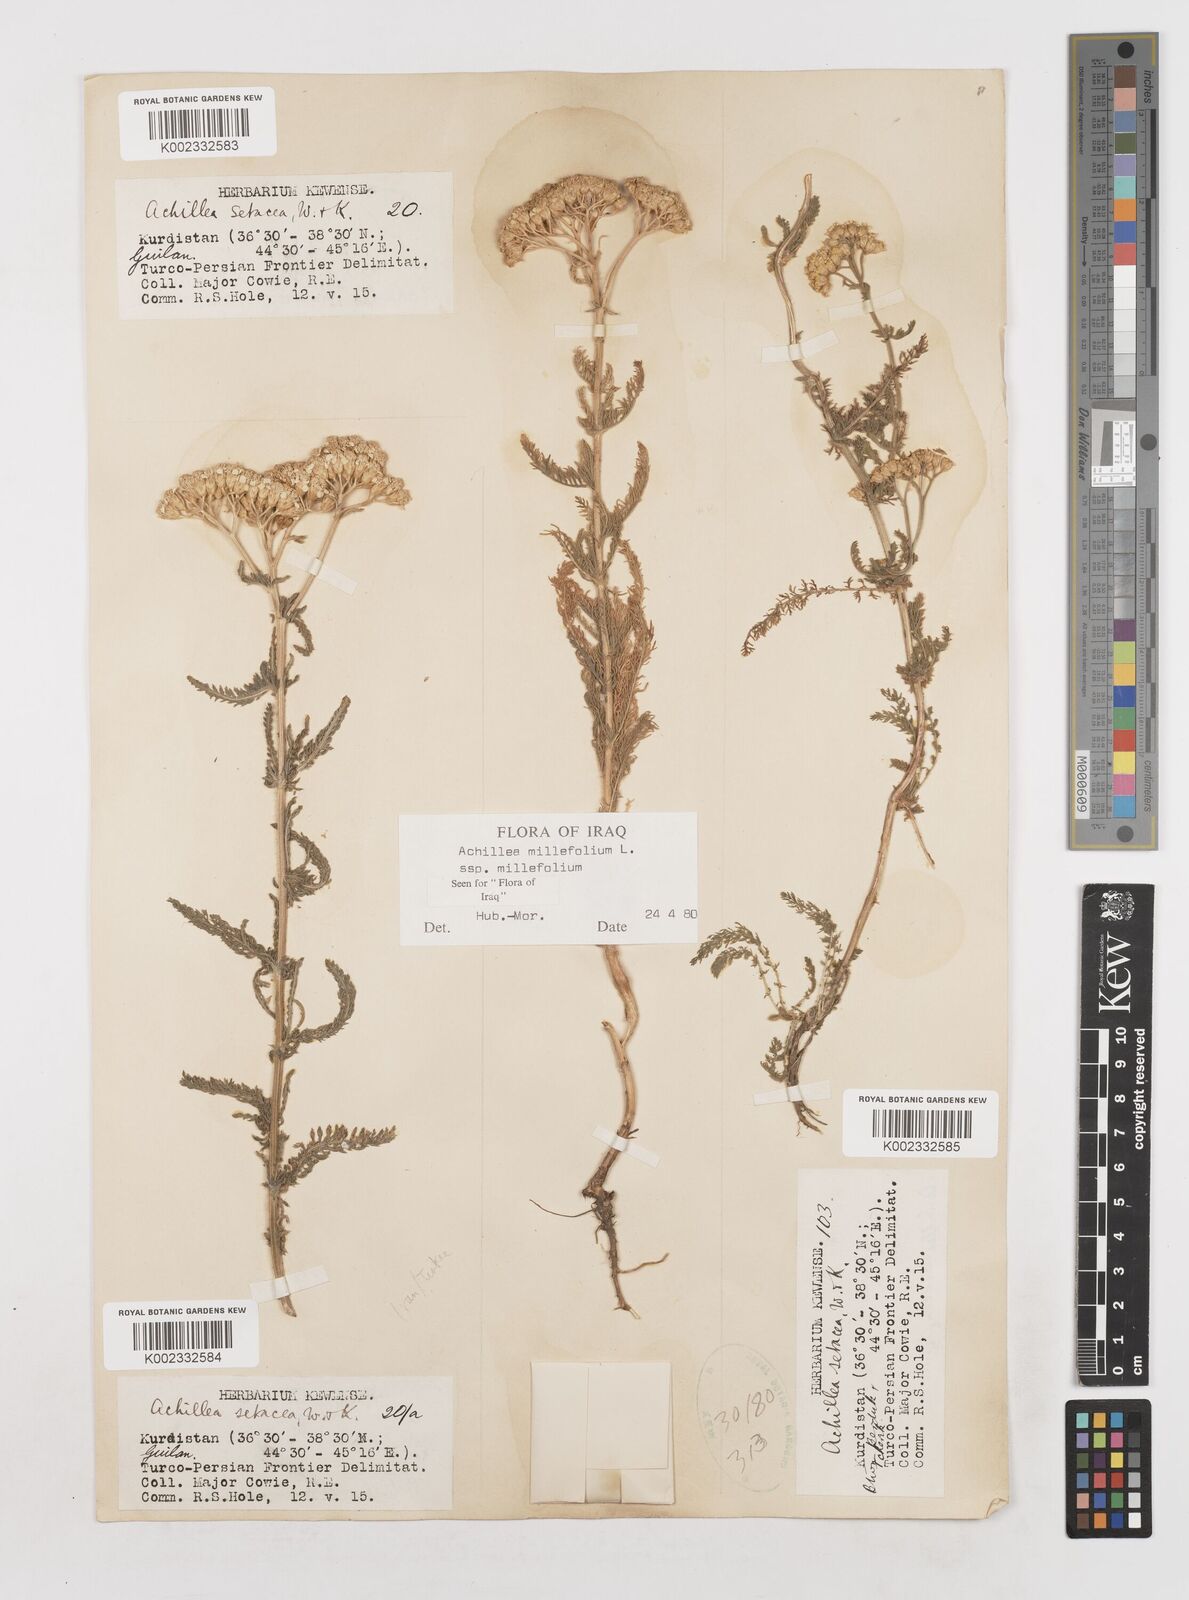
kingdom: Plantae
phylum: Tracheophyta
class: Magnoliopsida
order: Asterales
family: Asteraceae
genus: Achillea
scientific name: Achillea millefolium
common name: Yarrow
